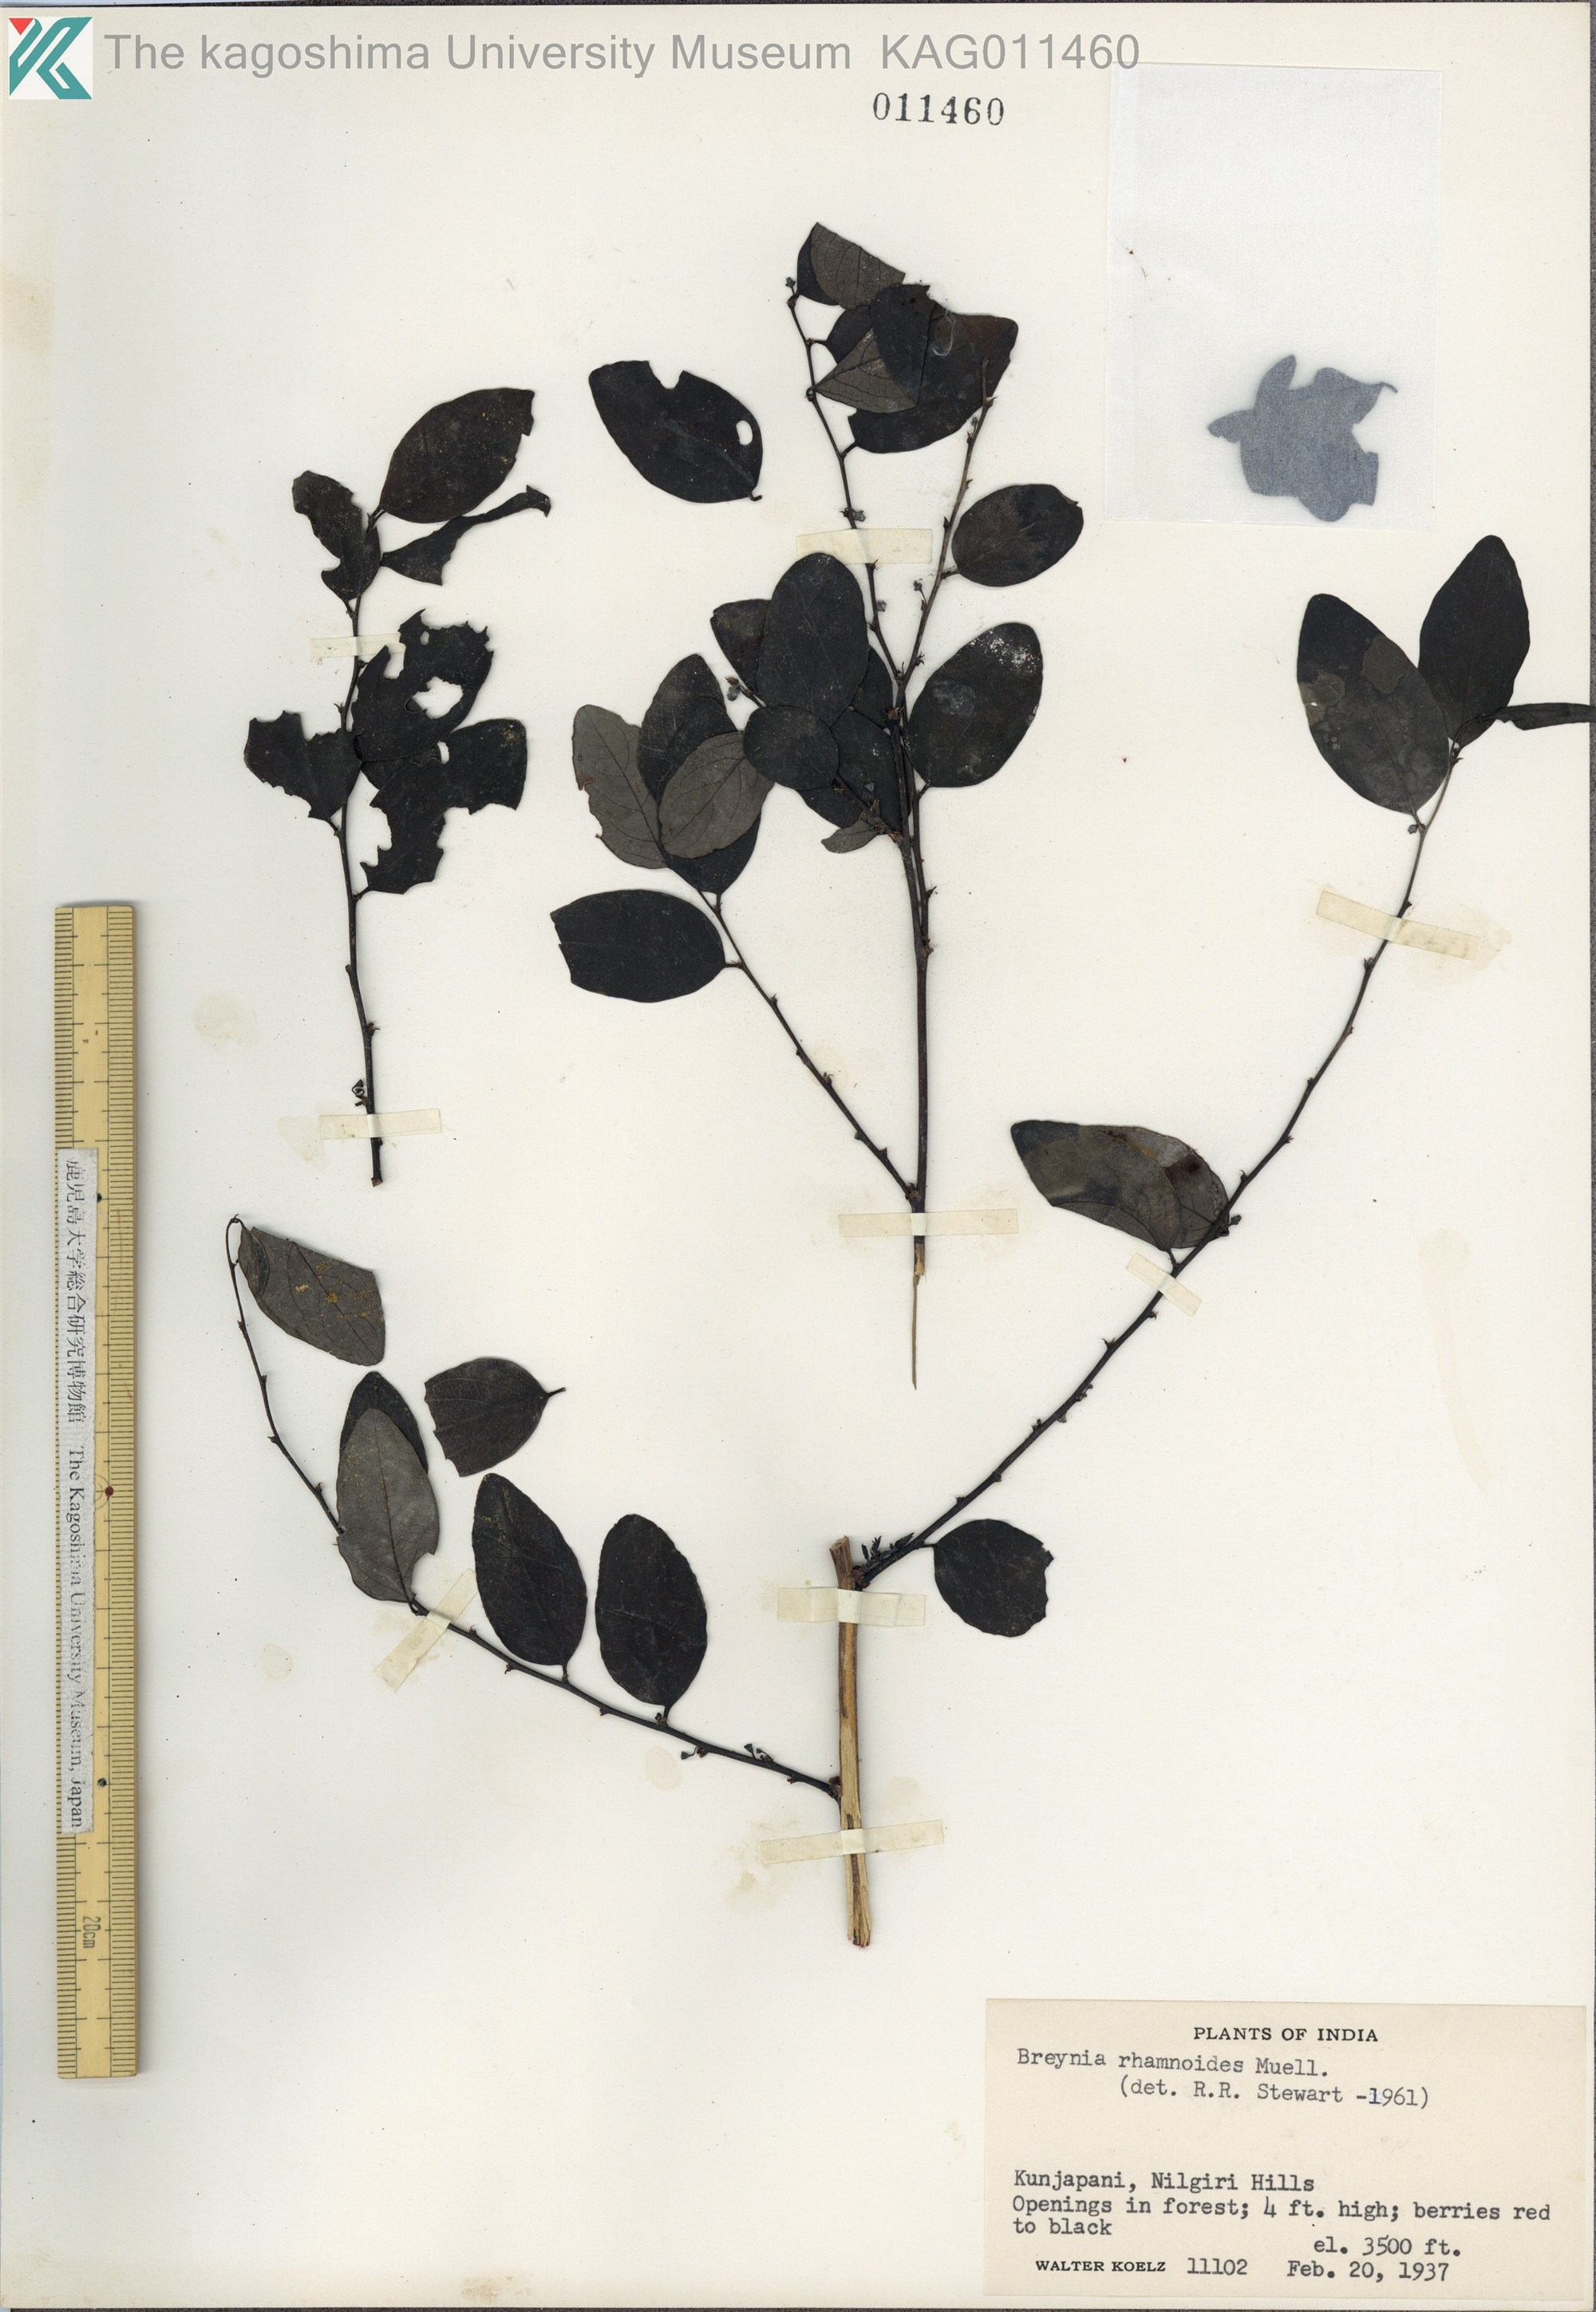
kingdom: Plantae
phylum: Tracheophyta
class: Magnoliopsida
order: Malpighiales
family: Phyllanthaceae
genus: Breynia
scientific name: Breynia vitis-idaea
